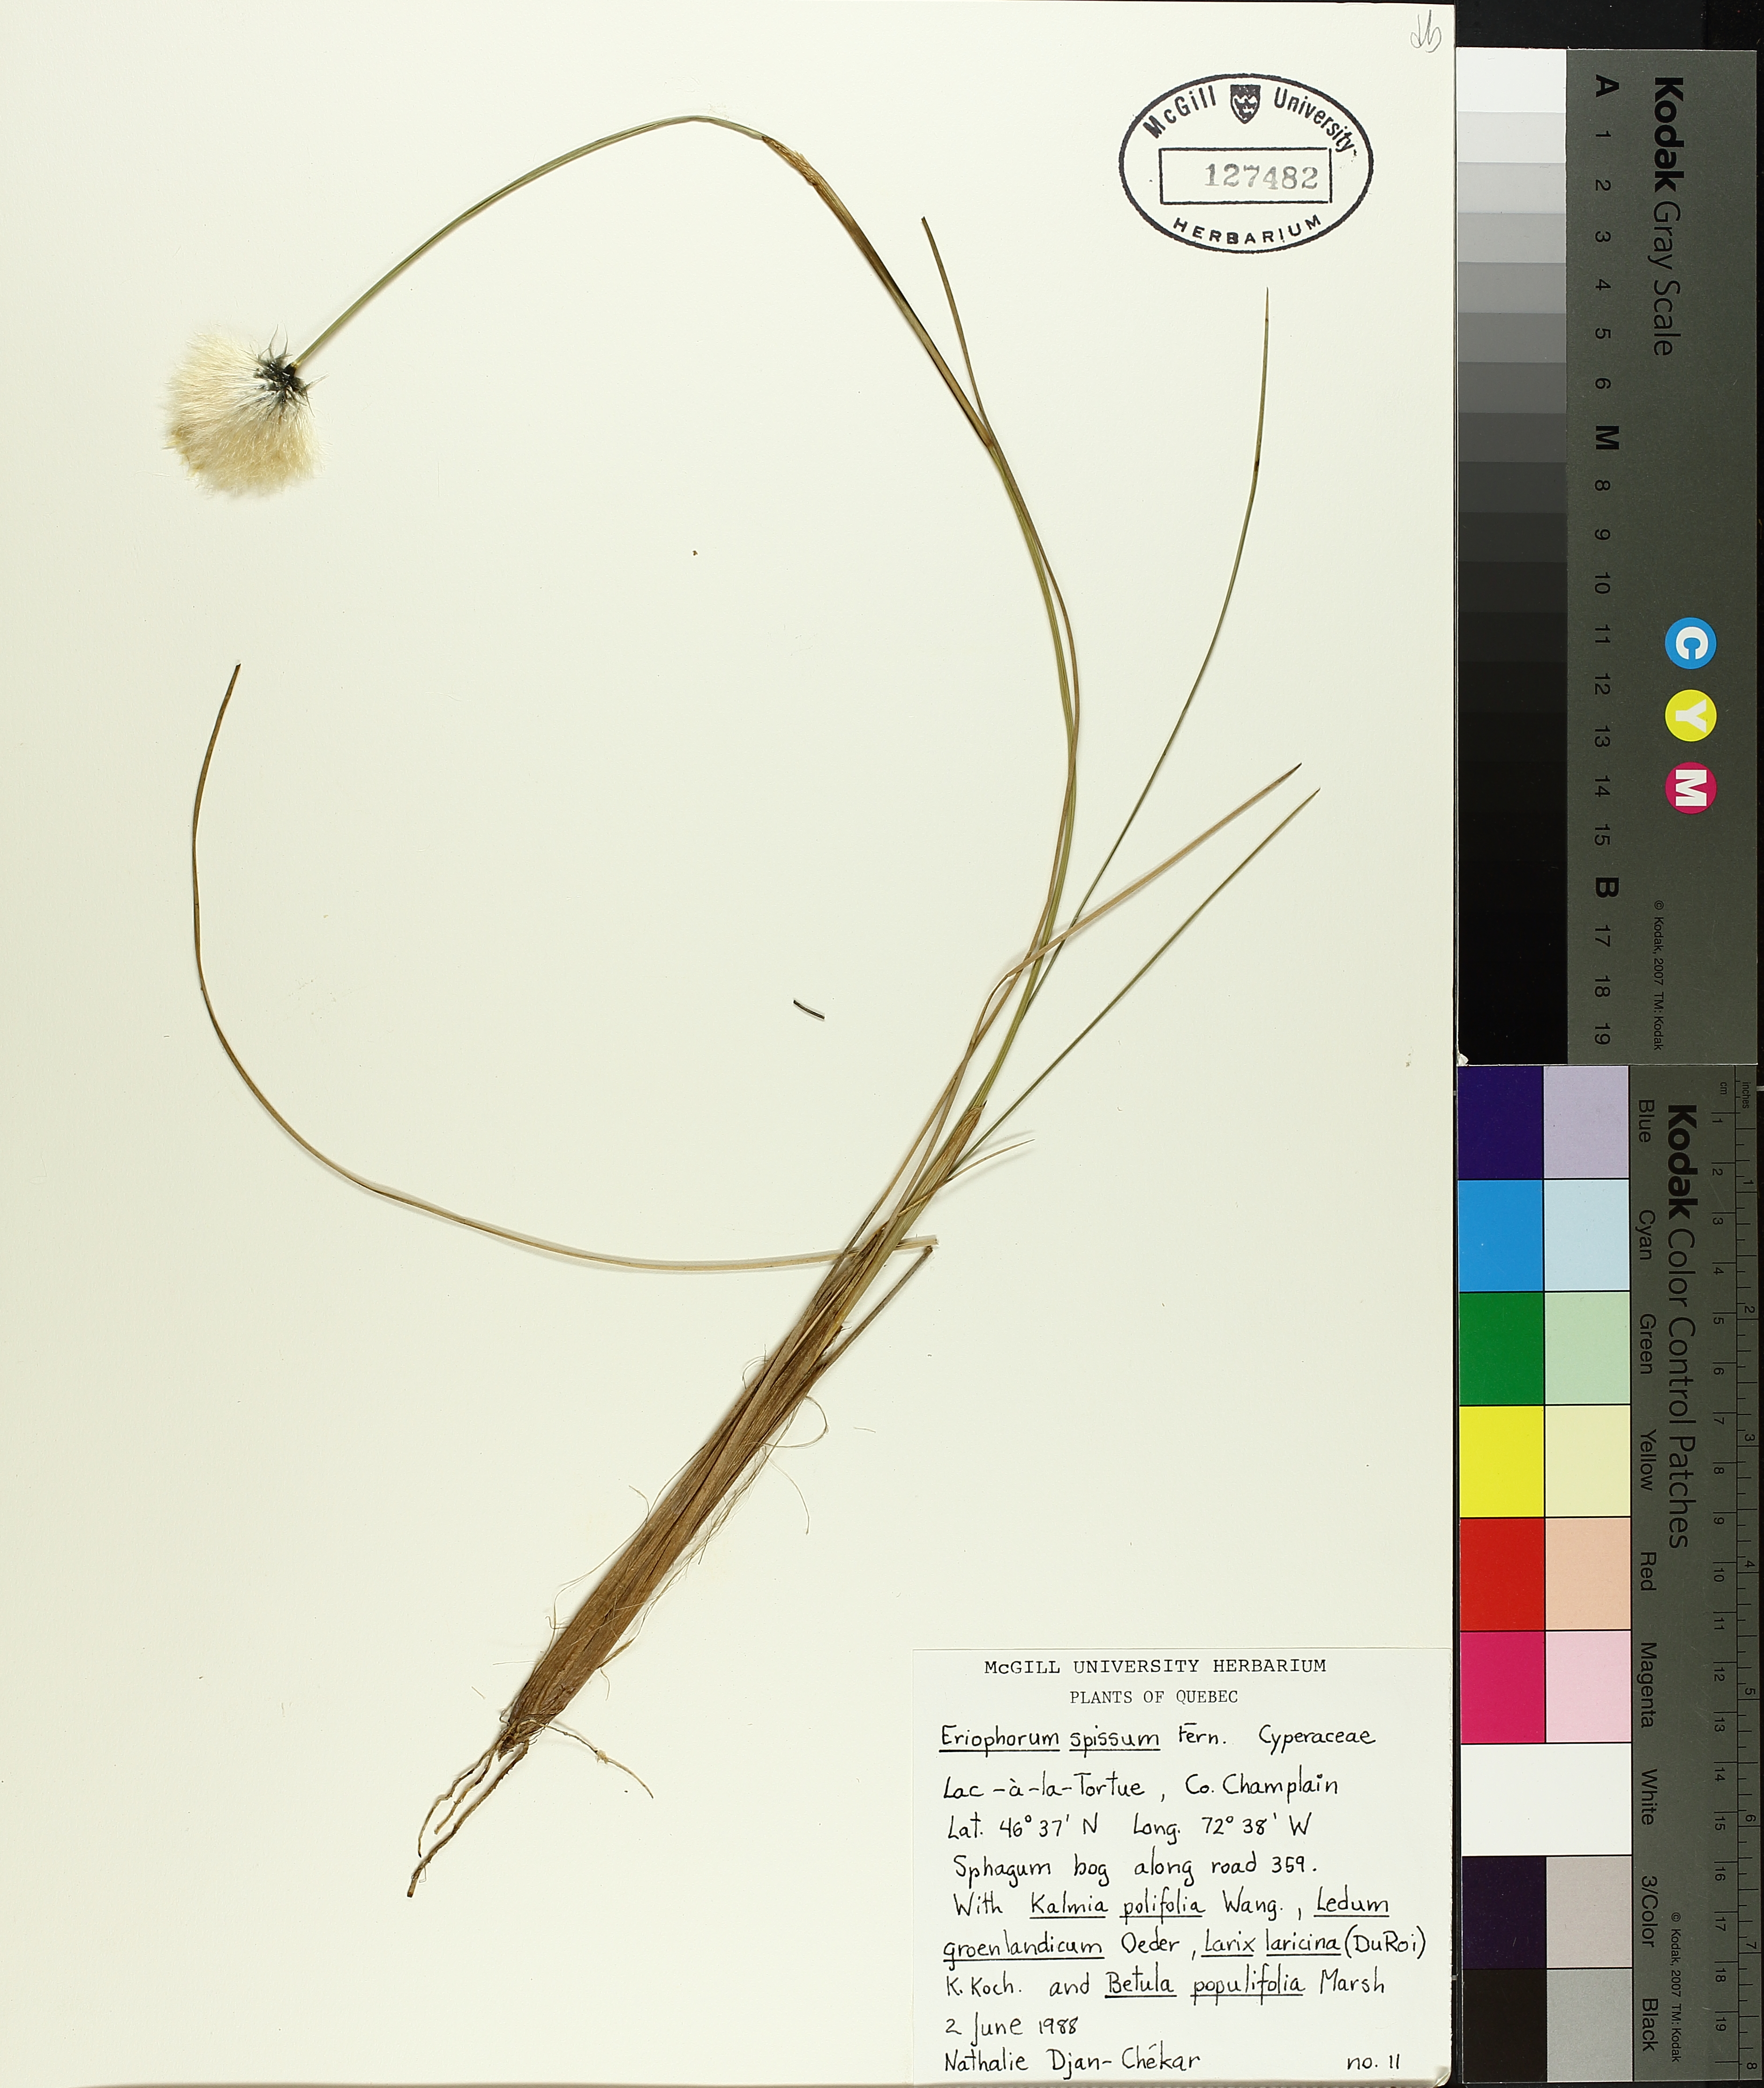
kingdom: Plantae
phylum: Tracheophyta
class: Liliopsida
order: Poales
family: Cyperaceae
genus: Eriophorum
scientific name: Eriophorum vaginatum
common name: Hare's-tail cottongrass
